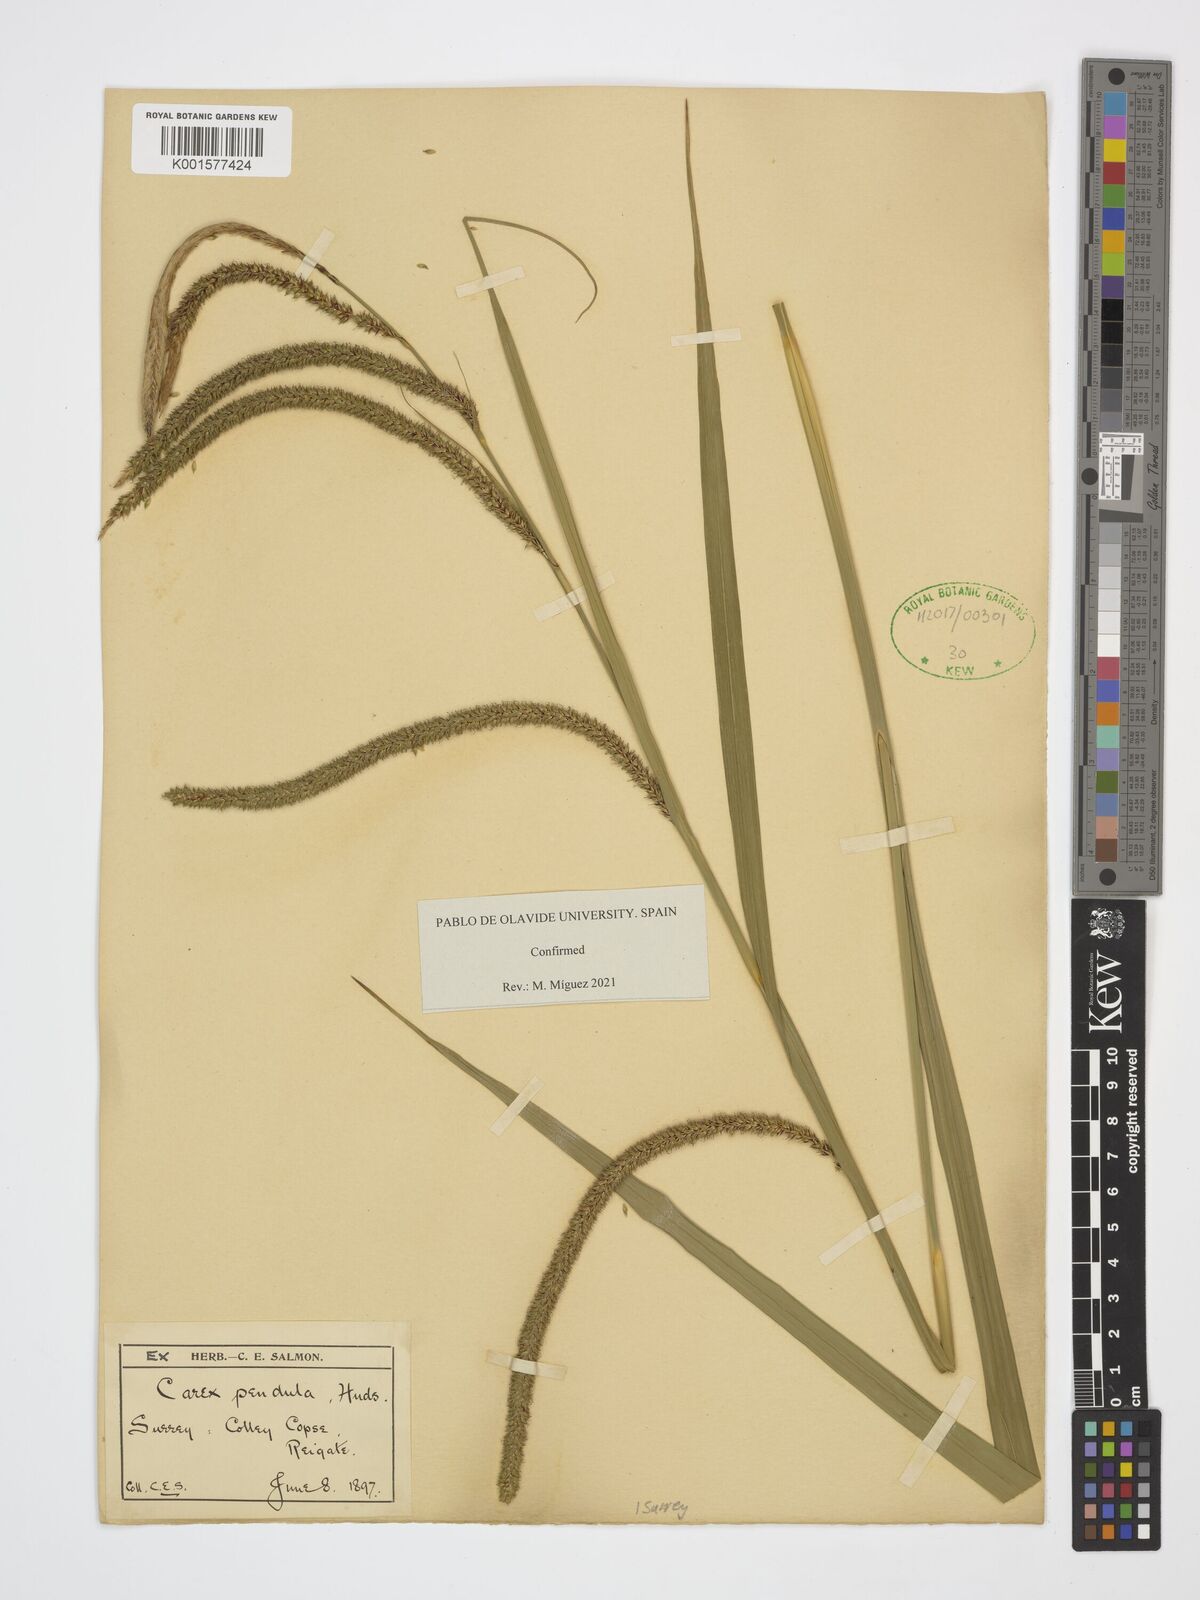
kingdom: Plantae
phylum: Tracheophyta
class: Liliopsida
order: Poales
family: Cyperaceae
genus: Carex
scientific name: Carex pendula
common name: Pendulous sedge
